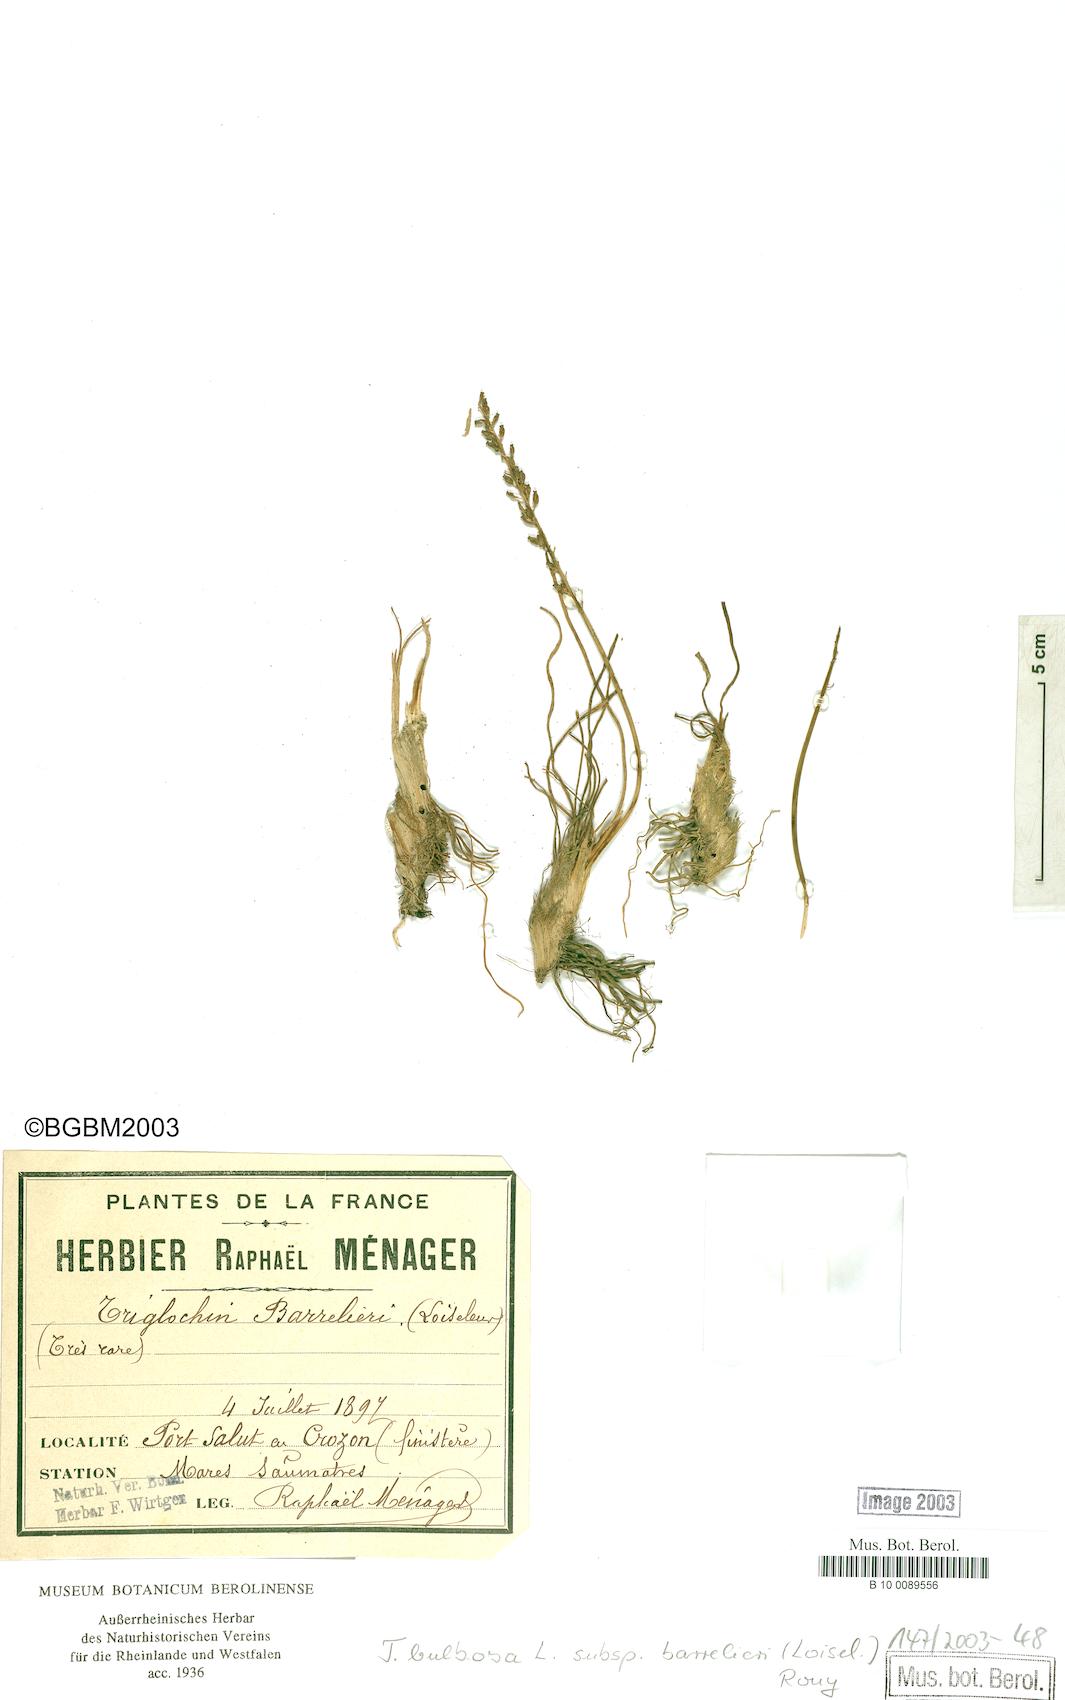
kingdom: Plantae
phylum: Tracheophyta
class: Liliopsida
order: Alismatales
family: Juncaginaceae
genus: Triglochin
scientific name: Triglochin barrelieri
